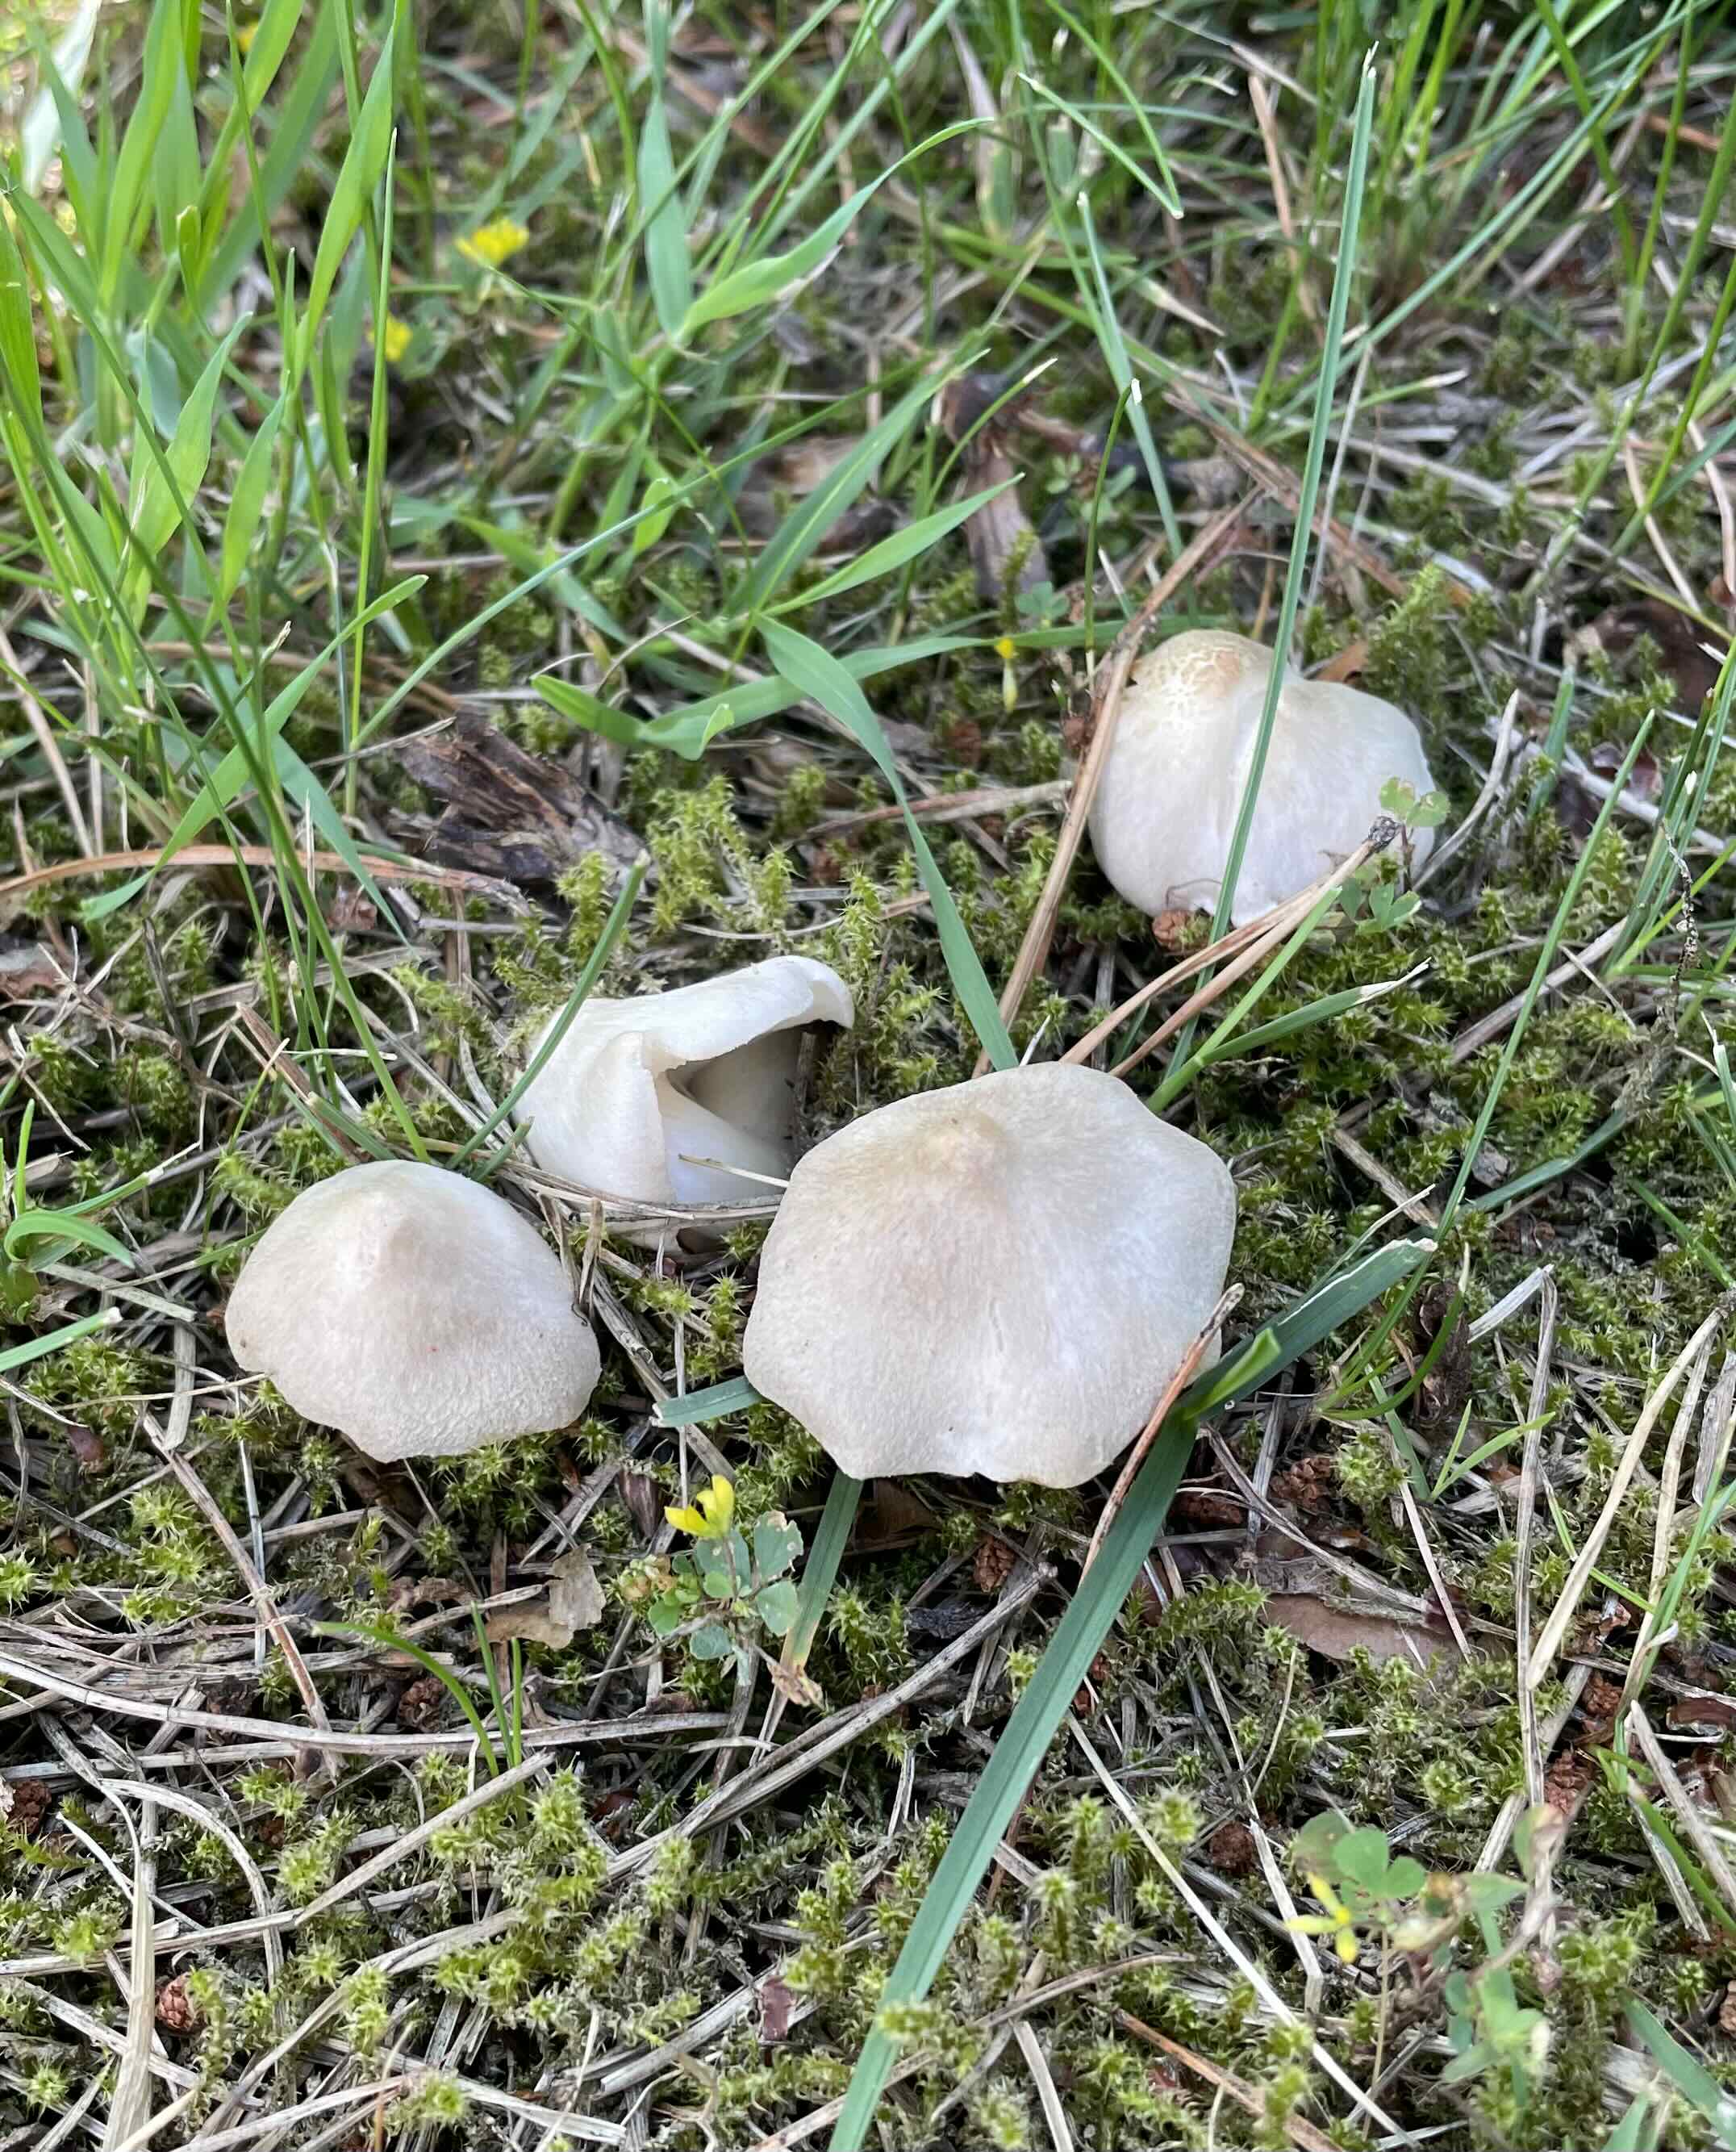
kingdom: Fungi
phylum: Basidiomycota
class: Agaricomycetes
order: Agaricales
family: Tricholomataceae
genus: Tricholoma
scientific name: Tricholoma argyraceum
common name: spids ridderhat
